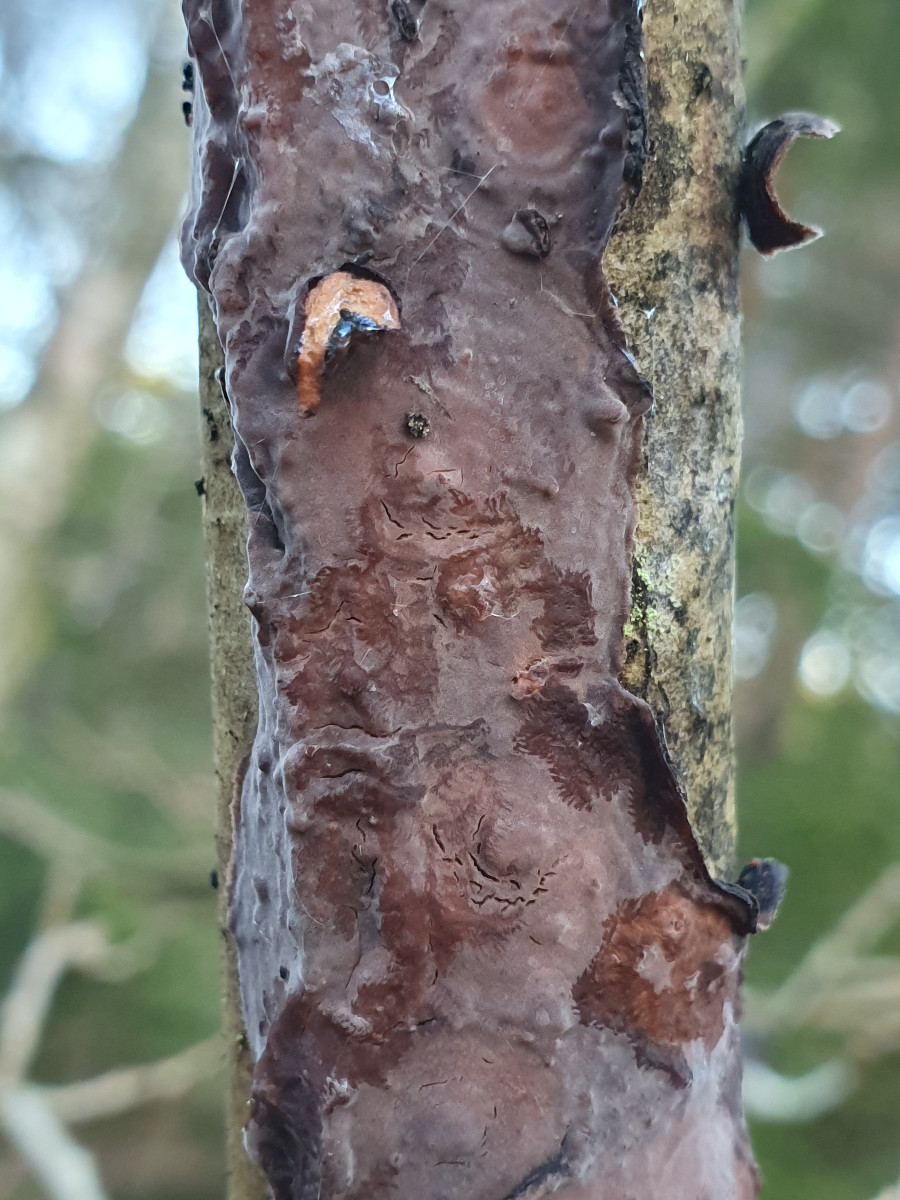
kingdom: Fungi
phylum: Basidiomycota
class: Agaricomycetes
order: Russulales
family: Peniophoraceae
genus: Peniophora
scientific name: Peniophora quercina
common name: ege-voksskind
